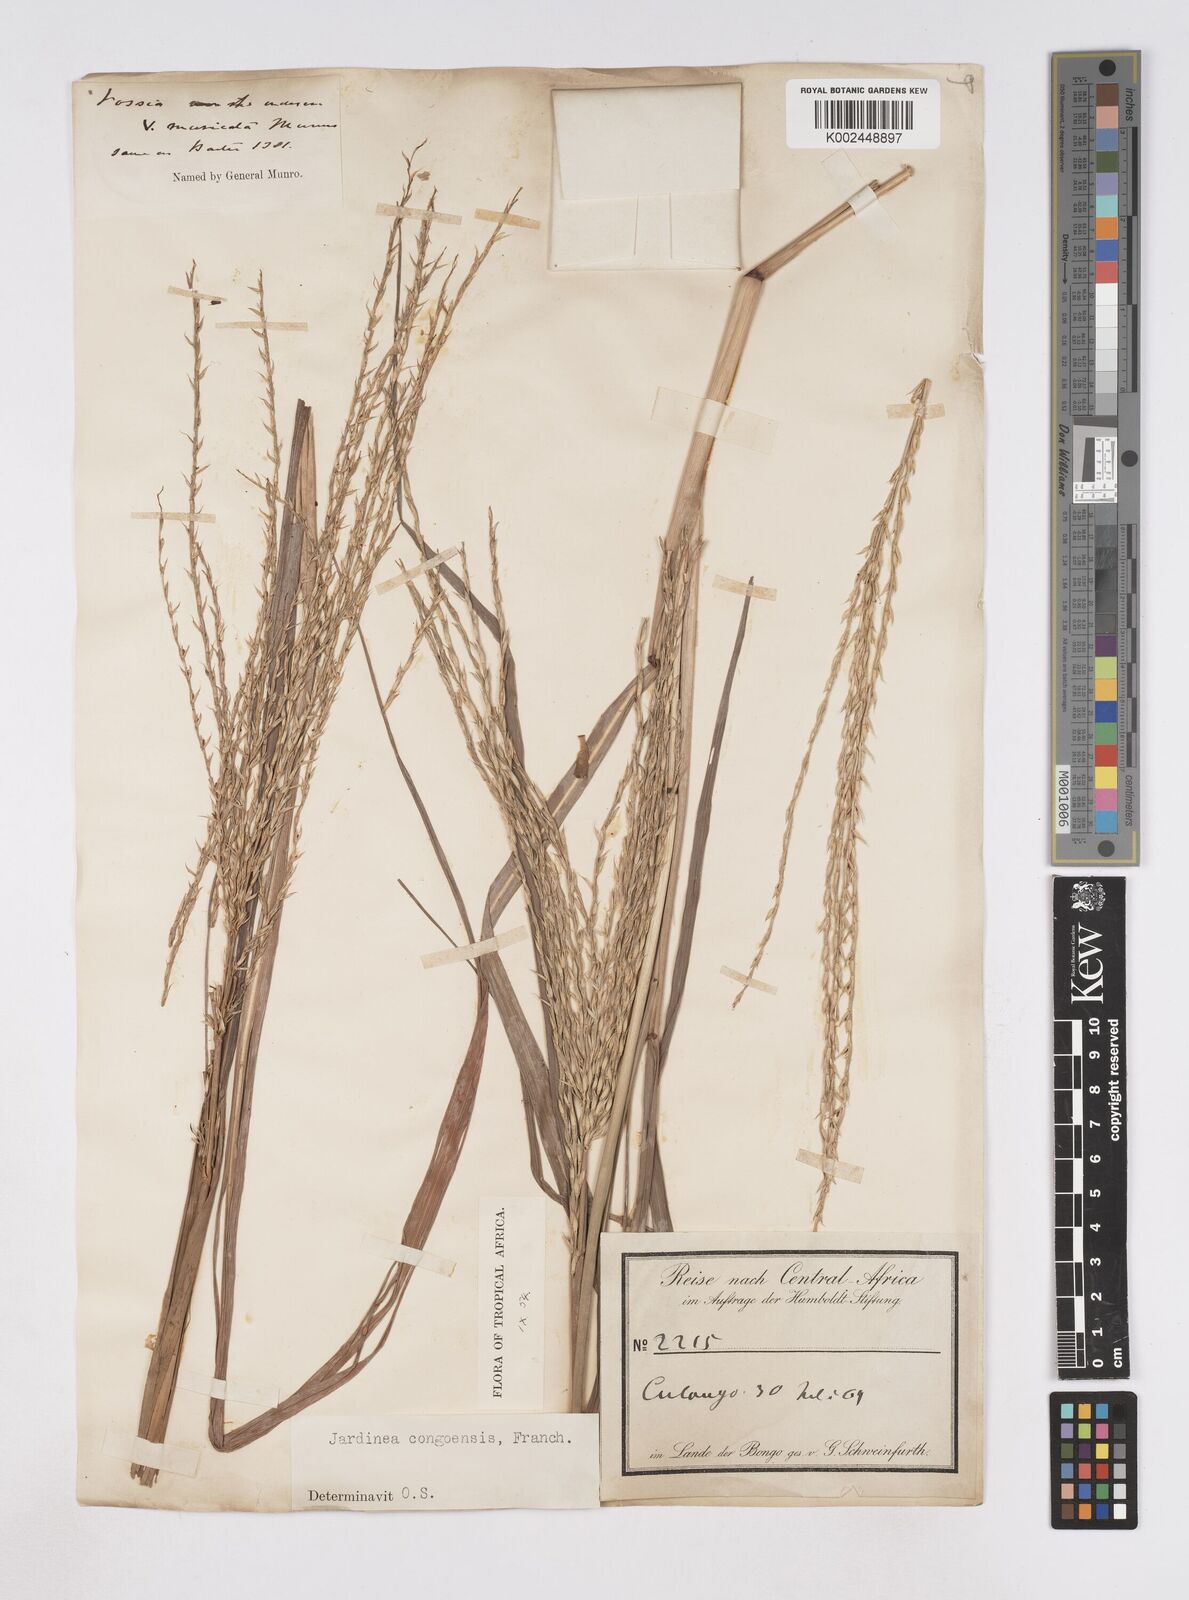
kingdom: Plantae
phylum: Tracheophyta
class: Liliopsida
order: Poales
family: Poaceae
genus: Phacelurus
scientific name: Phacelurus gabonensis
